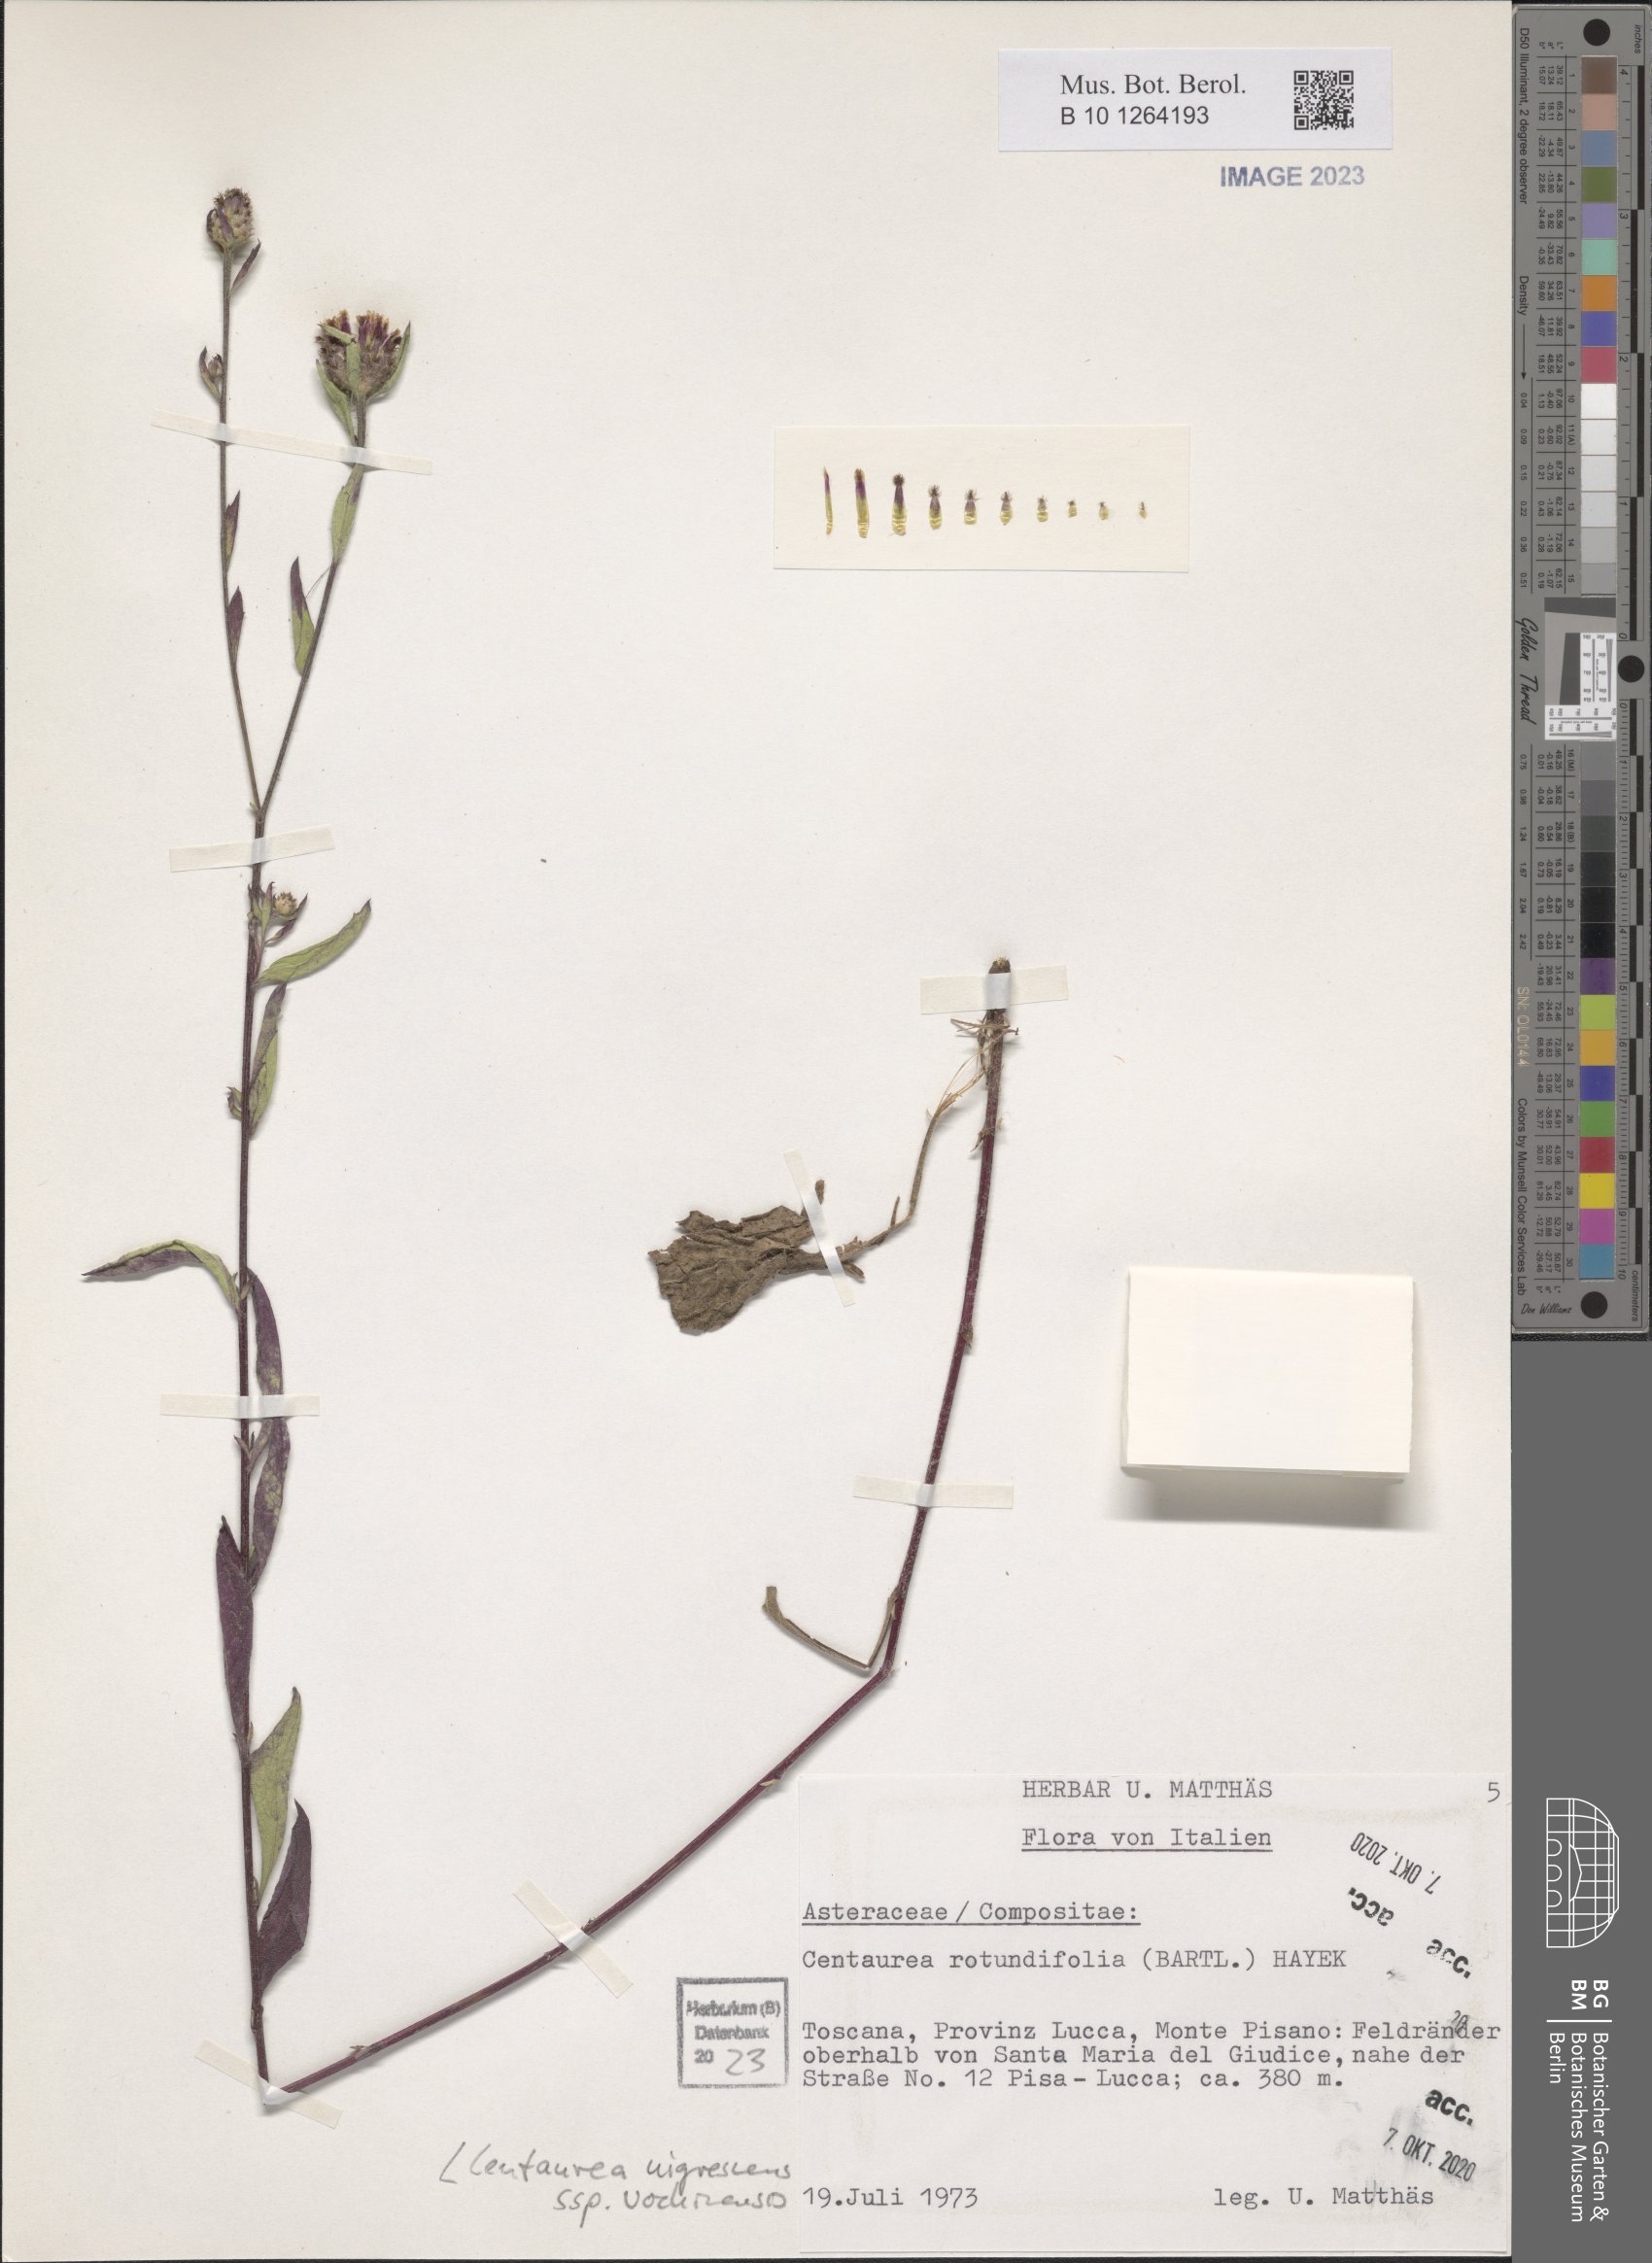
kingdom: Plantae
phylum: Tracheophyta
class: Magnoliopsida
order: Asterales
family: Asteraceae
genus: Centaurea
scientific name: Centaurea carniolica
